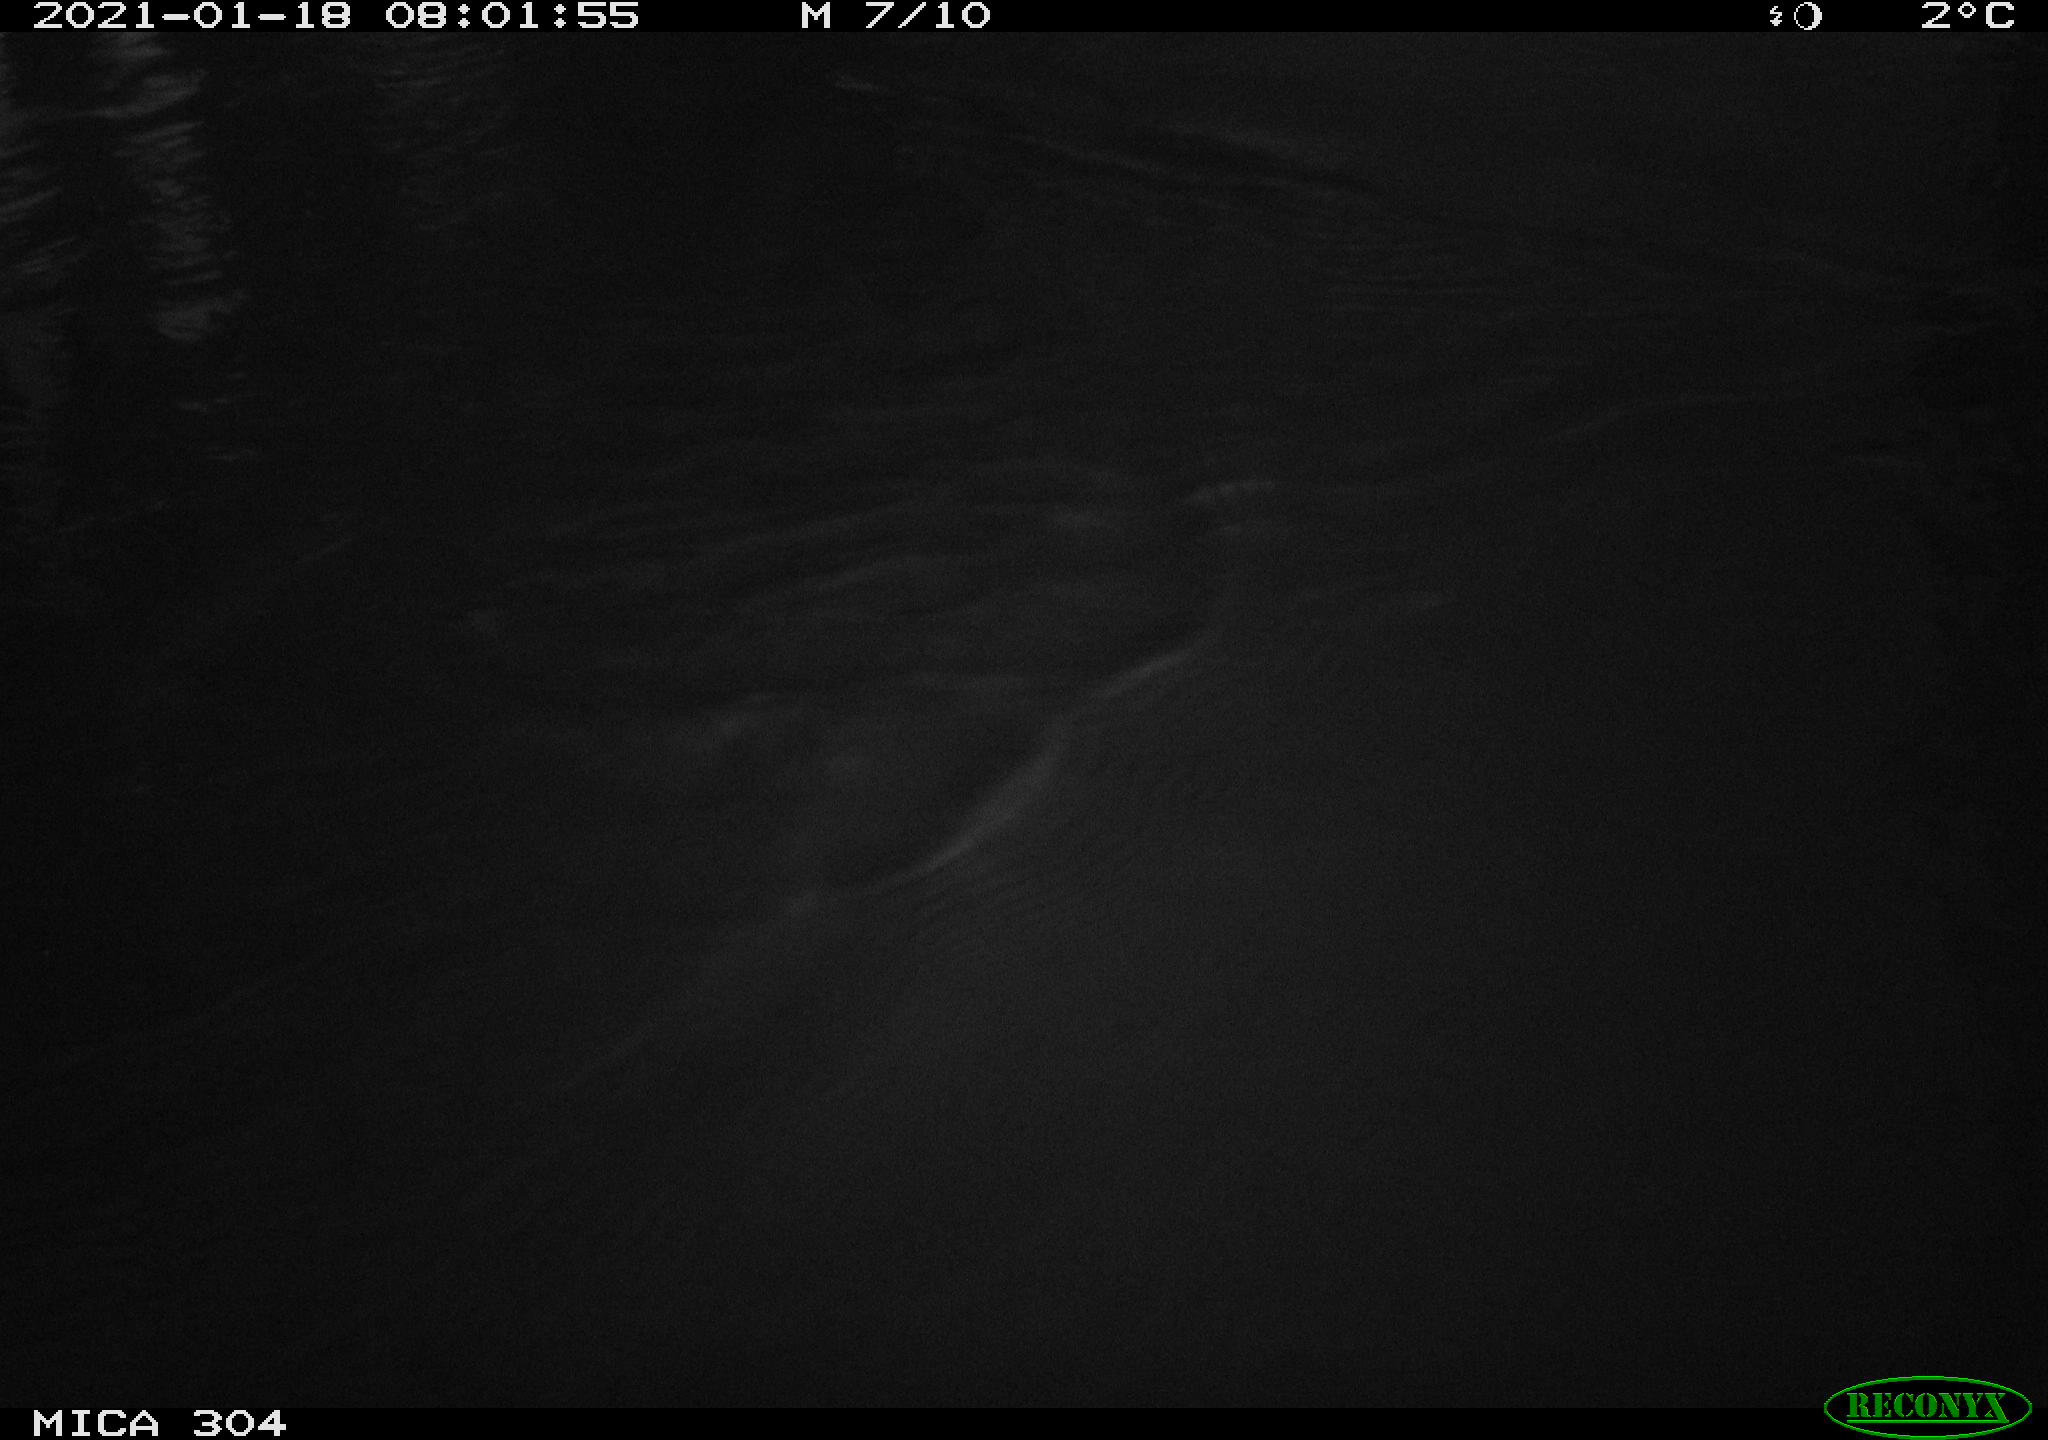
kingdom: Animalia
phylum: Chordata
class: Aves
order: Anseriformes
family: Anatidae
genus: Anas
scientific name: Anas platyrhynchos
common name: Mallard
